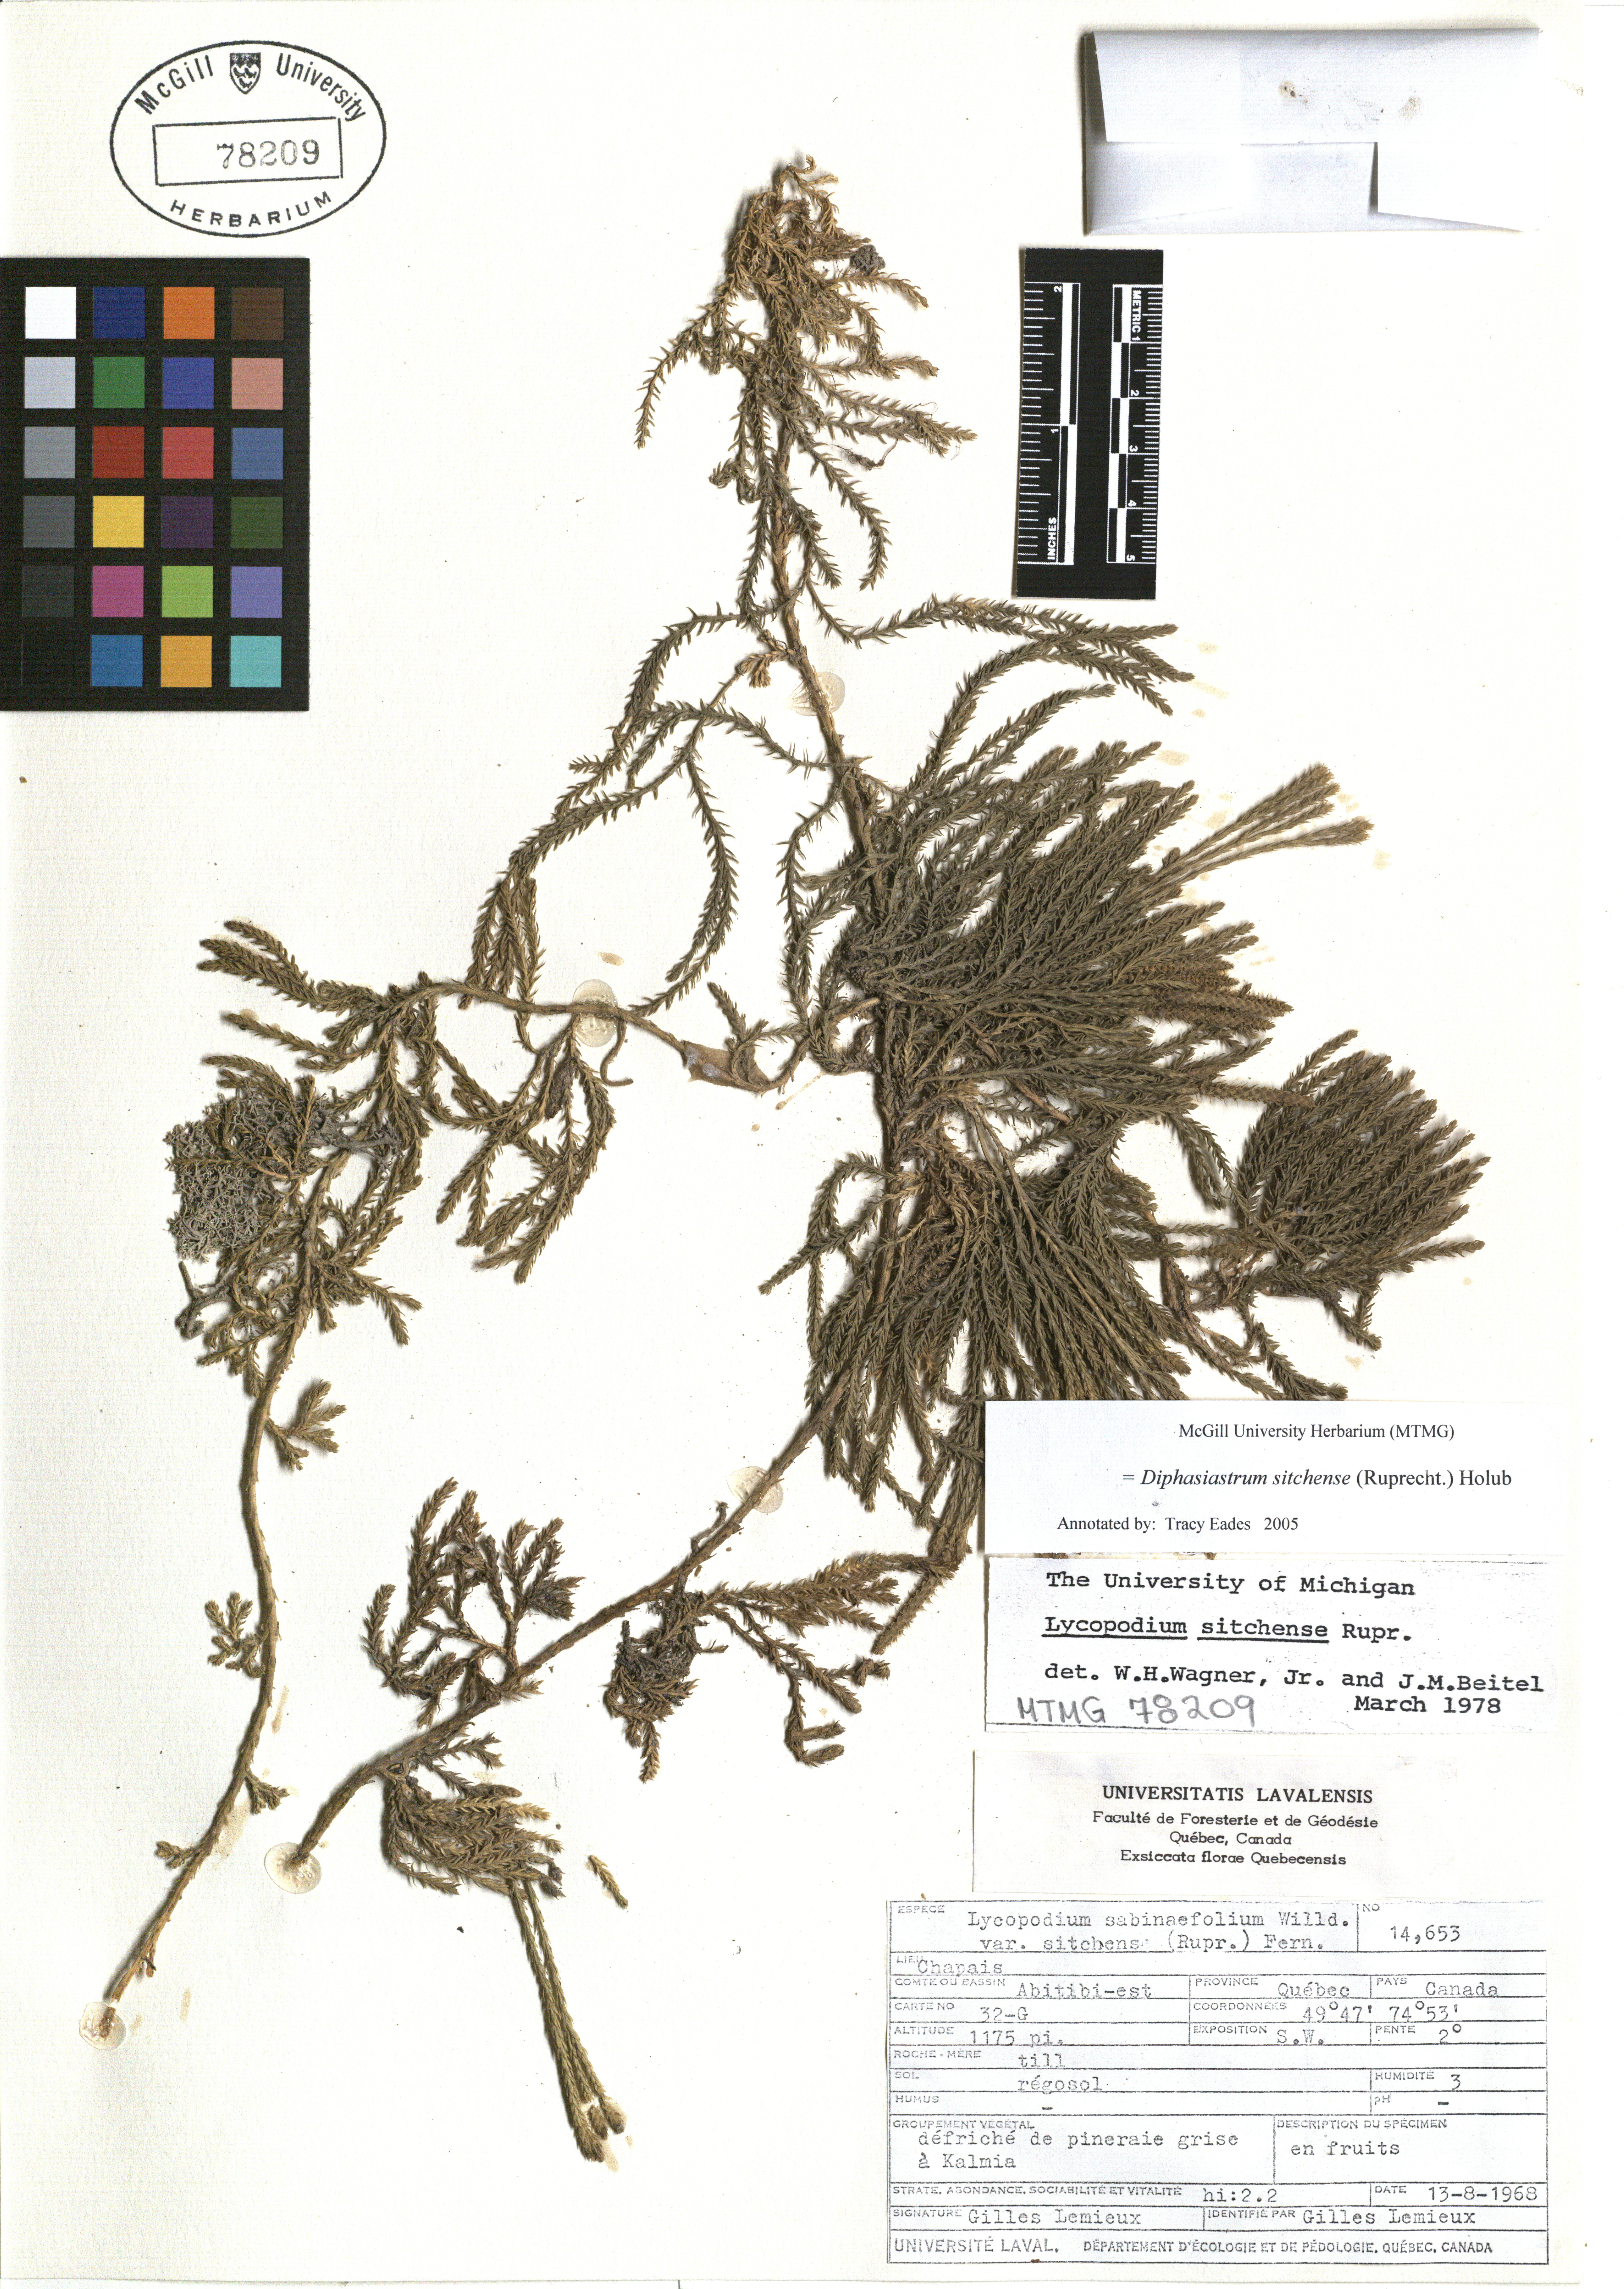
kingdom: Plantae
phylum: Tracheophyta
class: Lycopodiopsida
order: Lycopodiales
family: Lycopodiaceae
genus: Diphasiastrum
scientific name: Diphasiastrum sitchense
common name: Alaska clubmoss
